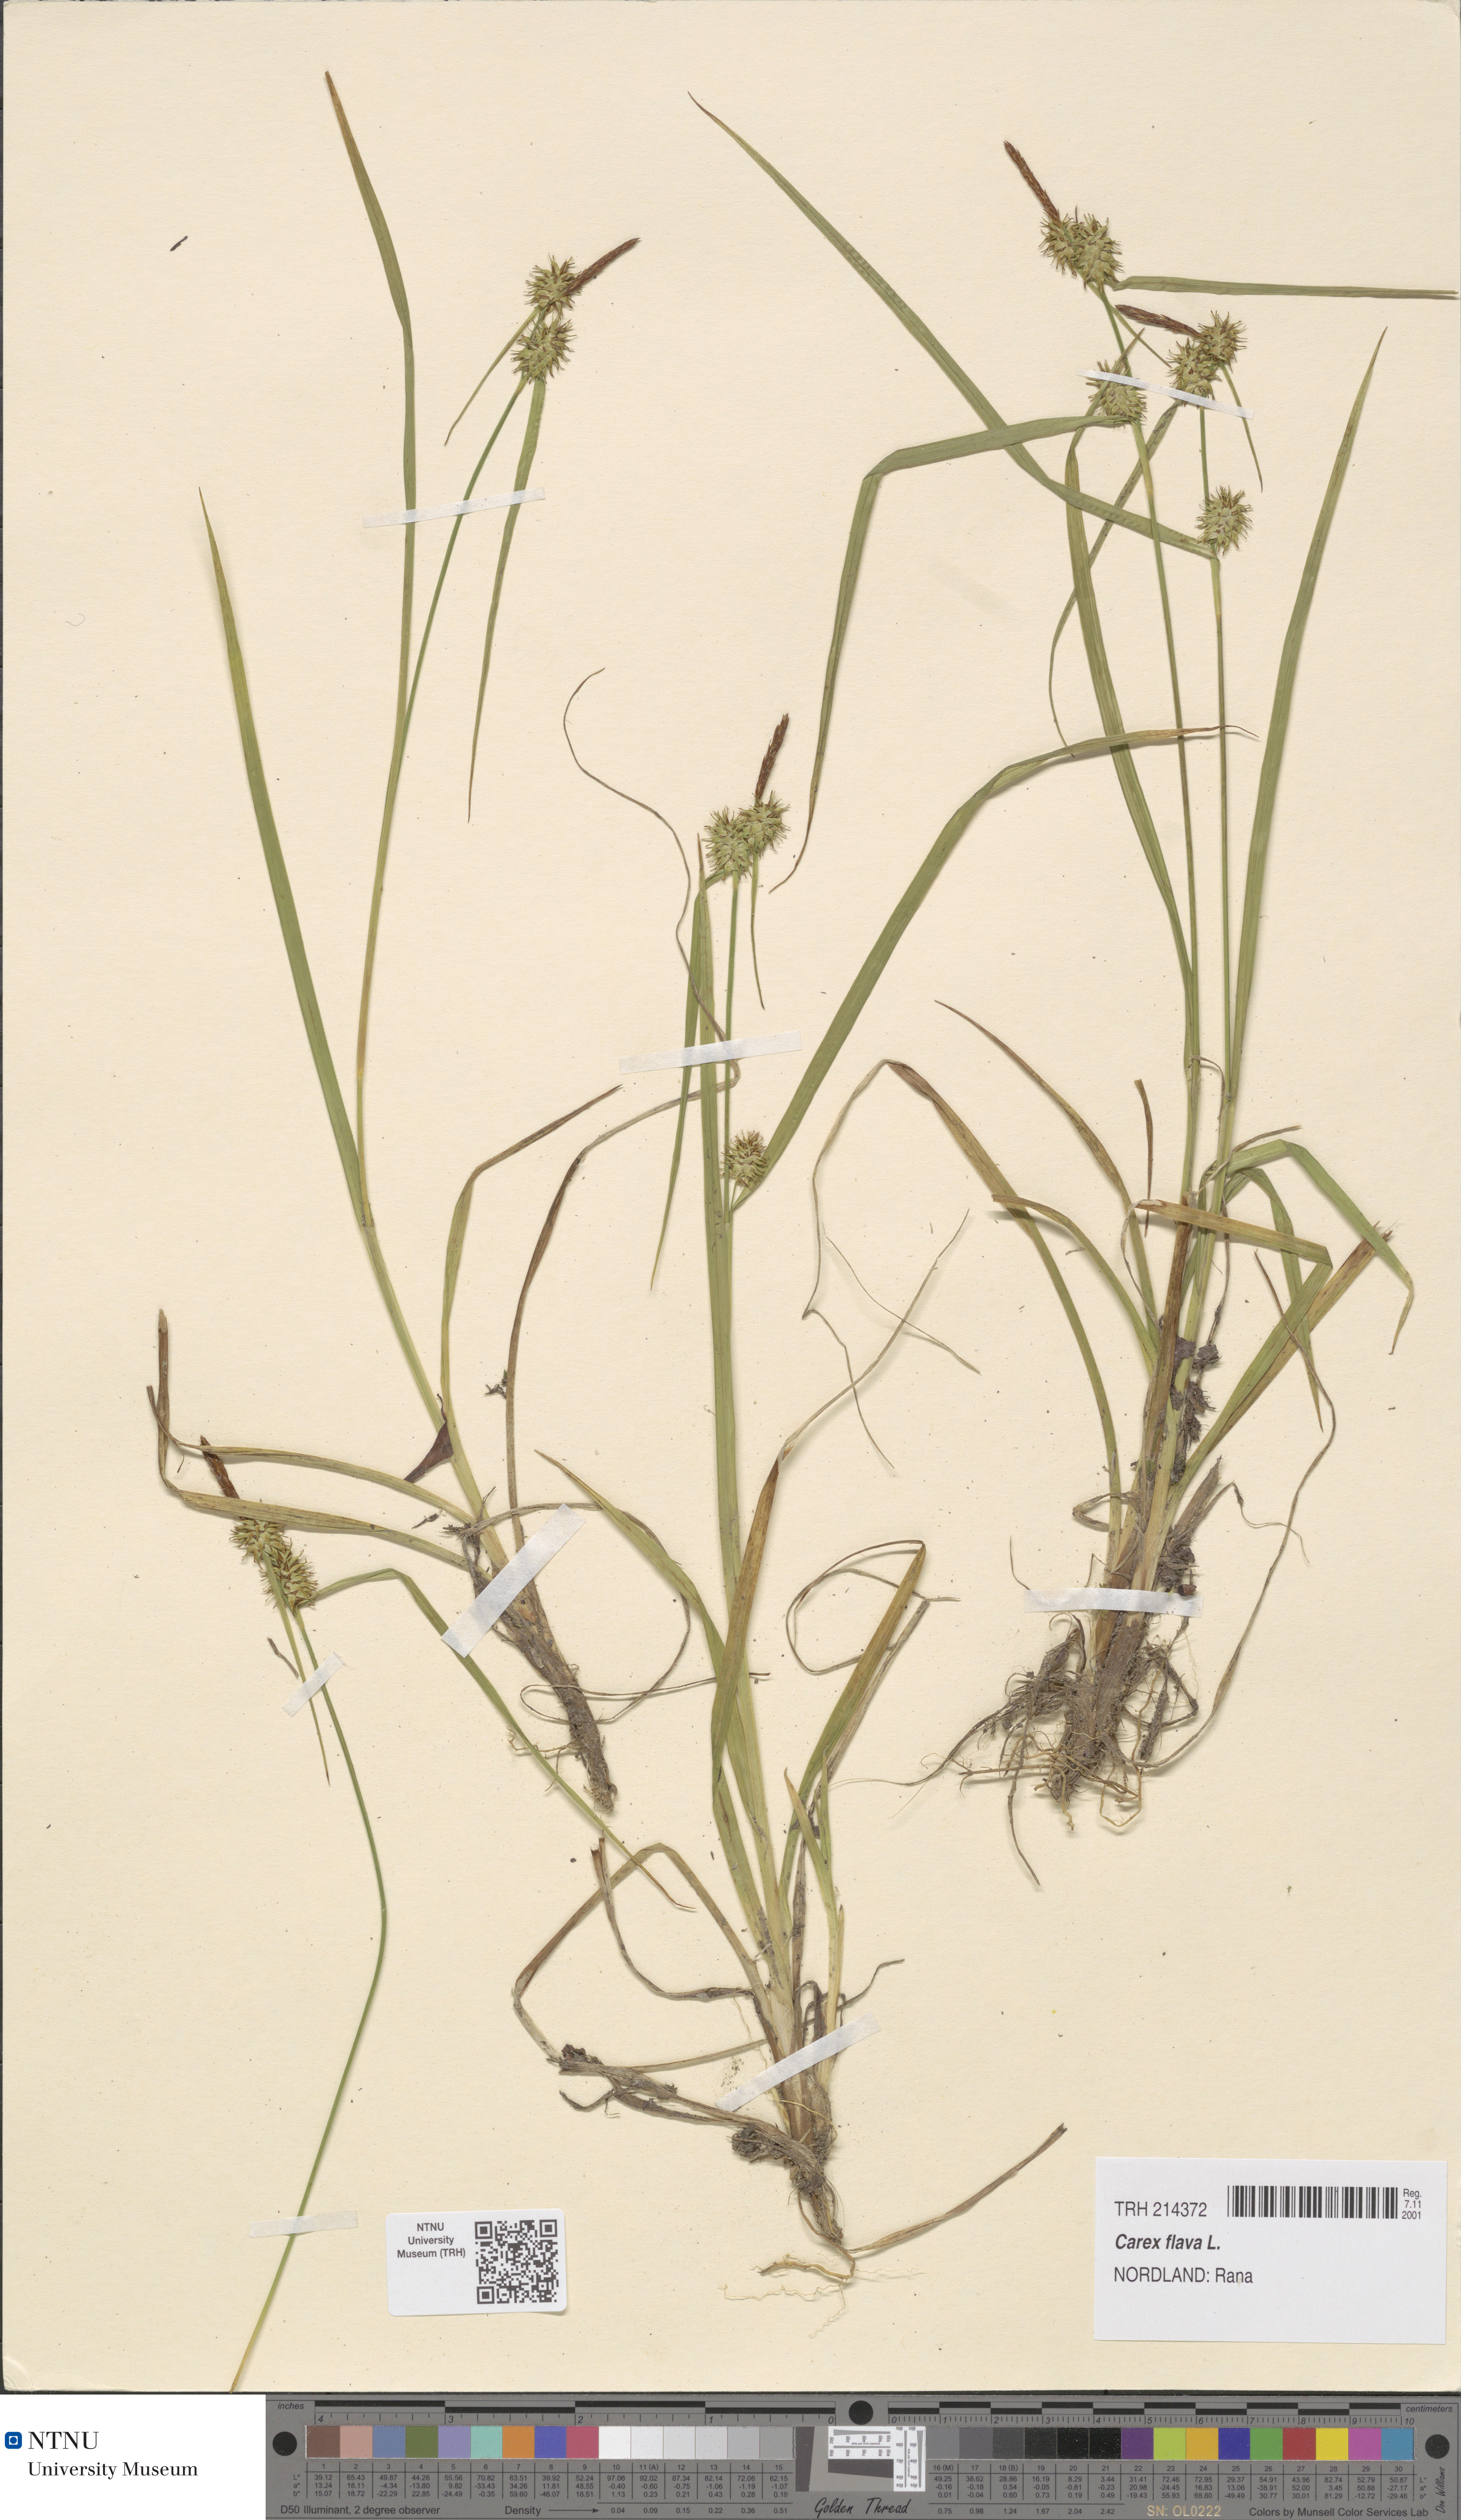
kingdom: Plantae
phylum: Tracheophyta
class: Liliopsida
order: Poales
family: Cyperaceae
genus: Carex
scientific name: Carex flava
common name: Large yellow-sedge
